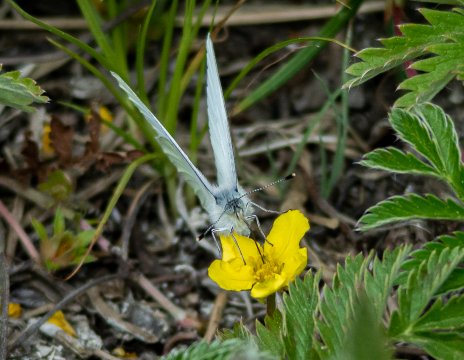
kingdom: Animalia
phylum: Arthropoda
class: Insecta
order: Lepidoptera
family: Pieridae
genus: Pieris
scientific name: Pieris oleracea
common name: Mustard White
